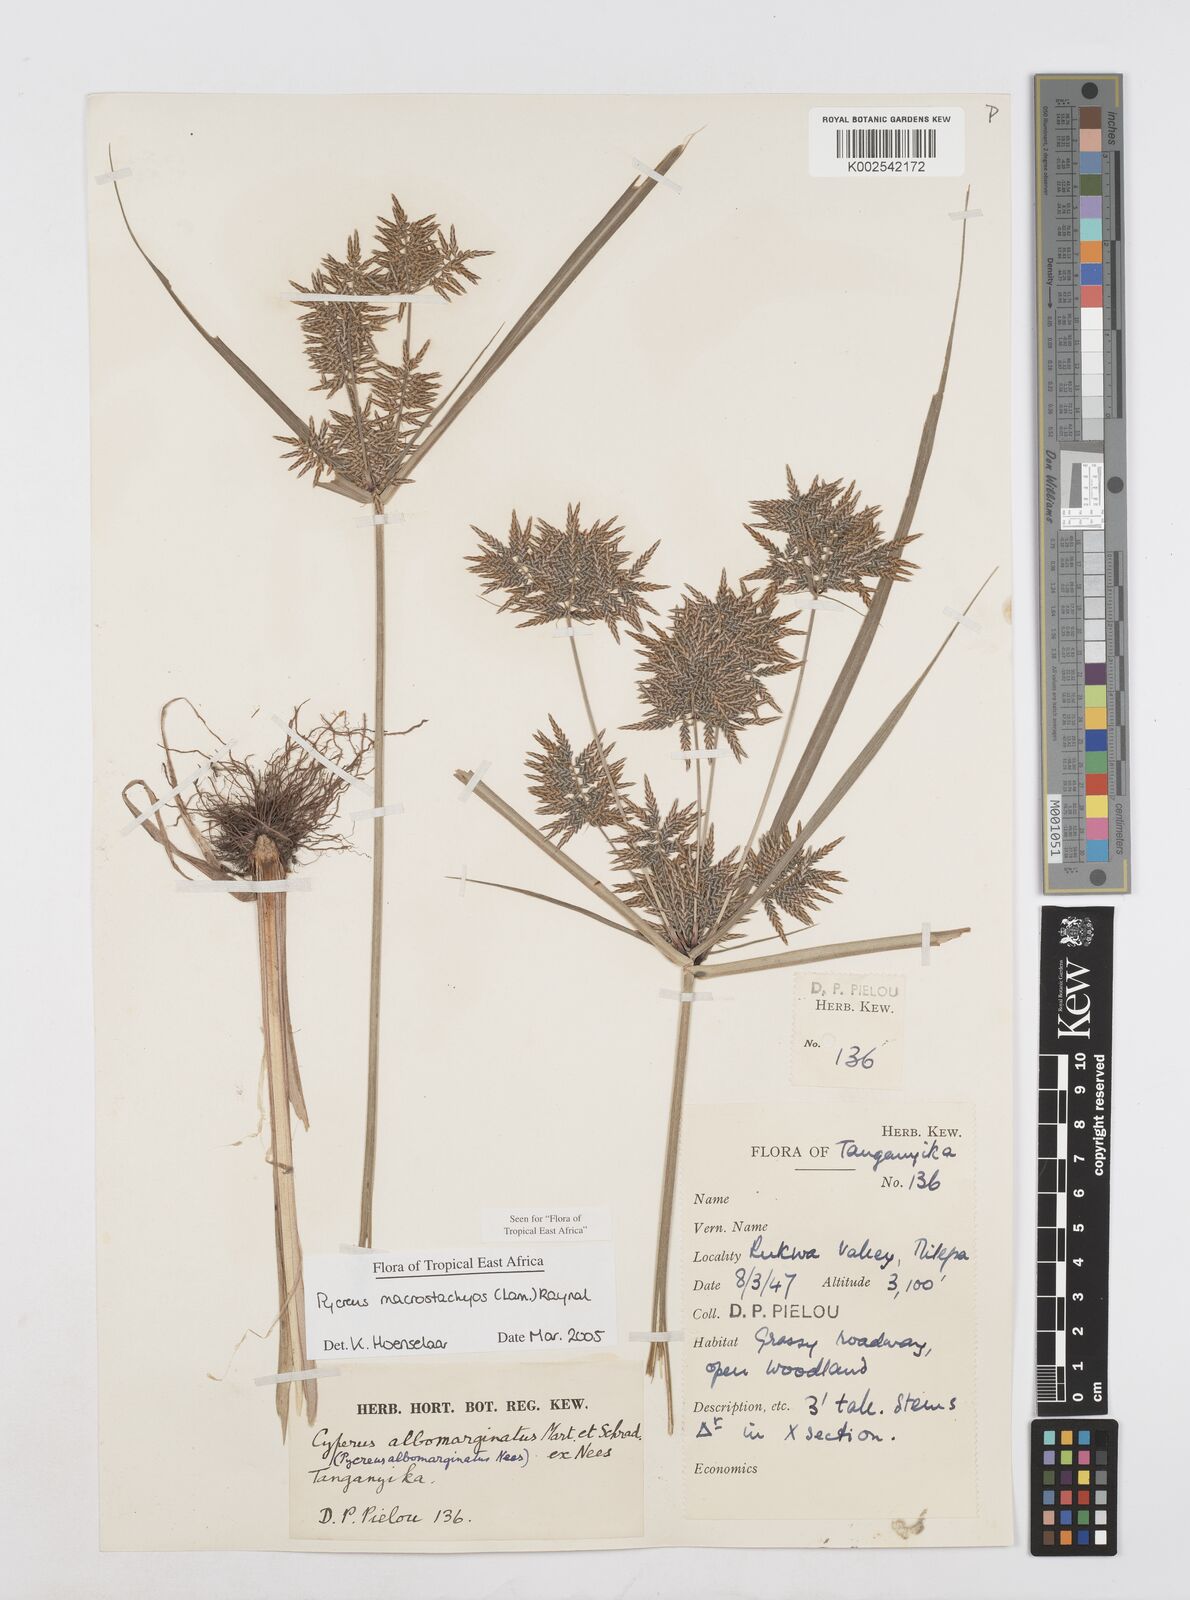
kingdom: Plantae
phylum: Tracheophyta
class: Liliopsida
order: Poales
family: Cyperaceae
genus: Cyperus
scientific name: Cyperus macrostachyos
